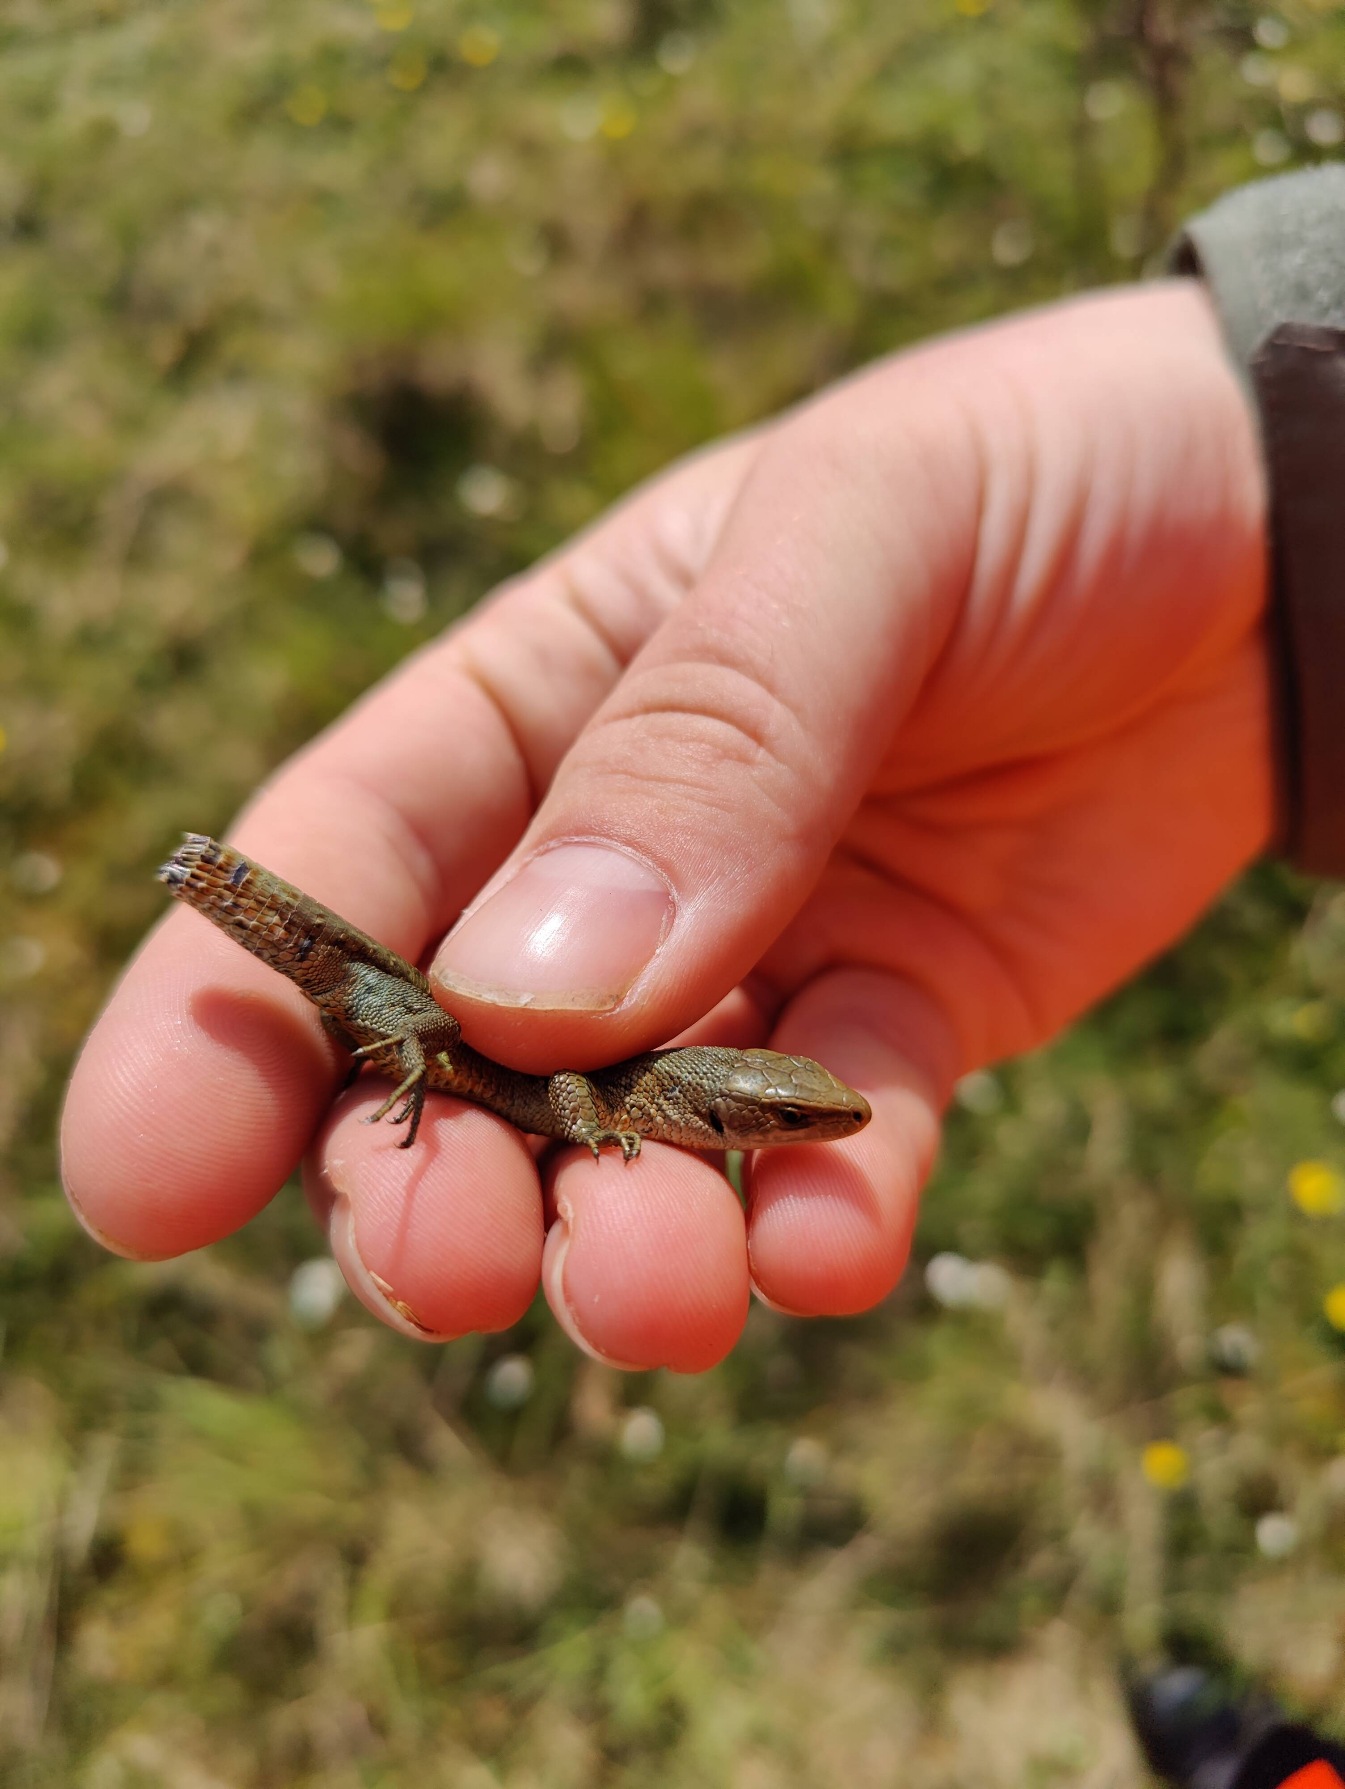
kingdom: Animalia
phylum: Chordata
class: Squamata
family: Lacertidae
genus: Zootoca
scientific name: Zootoca vivipara
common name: Skovfirben
